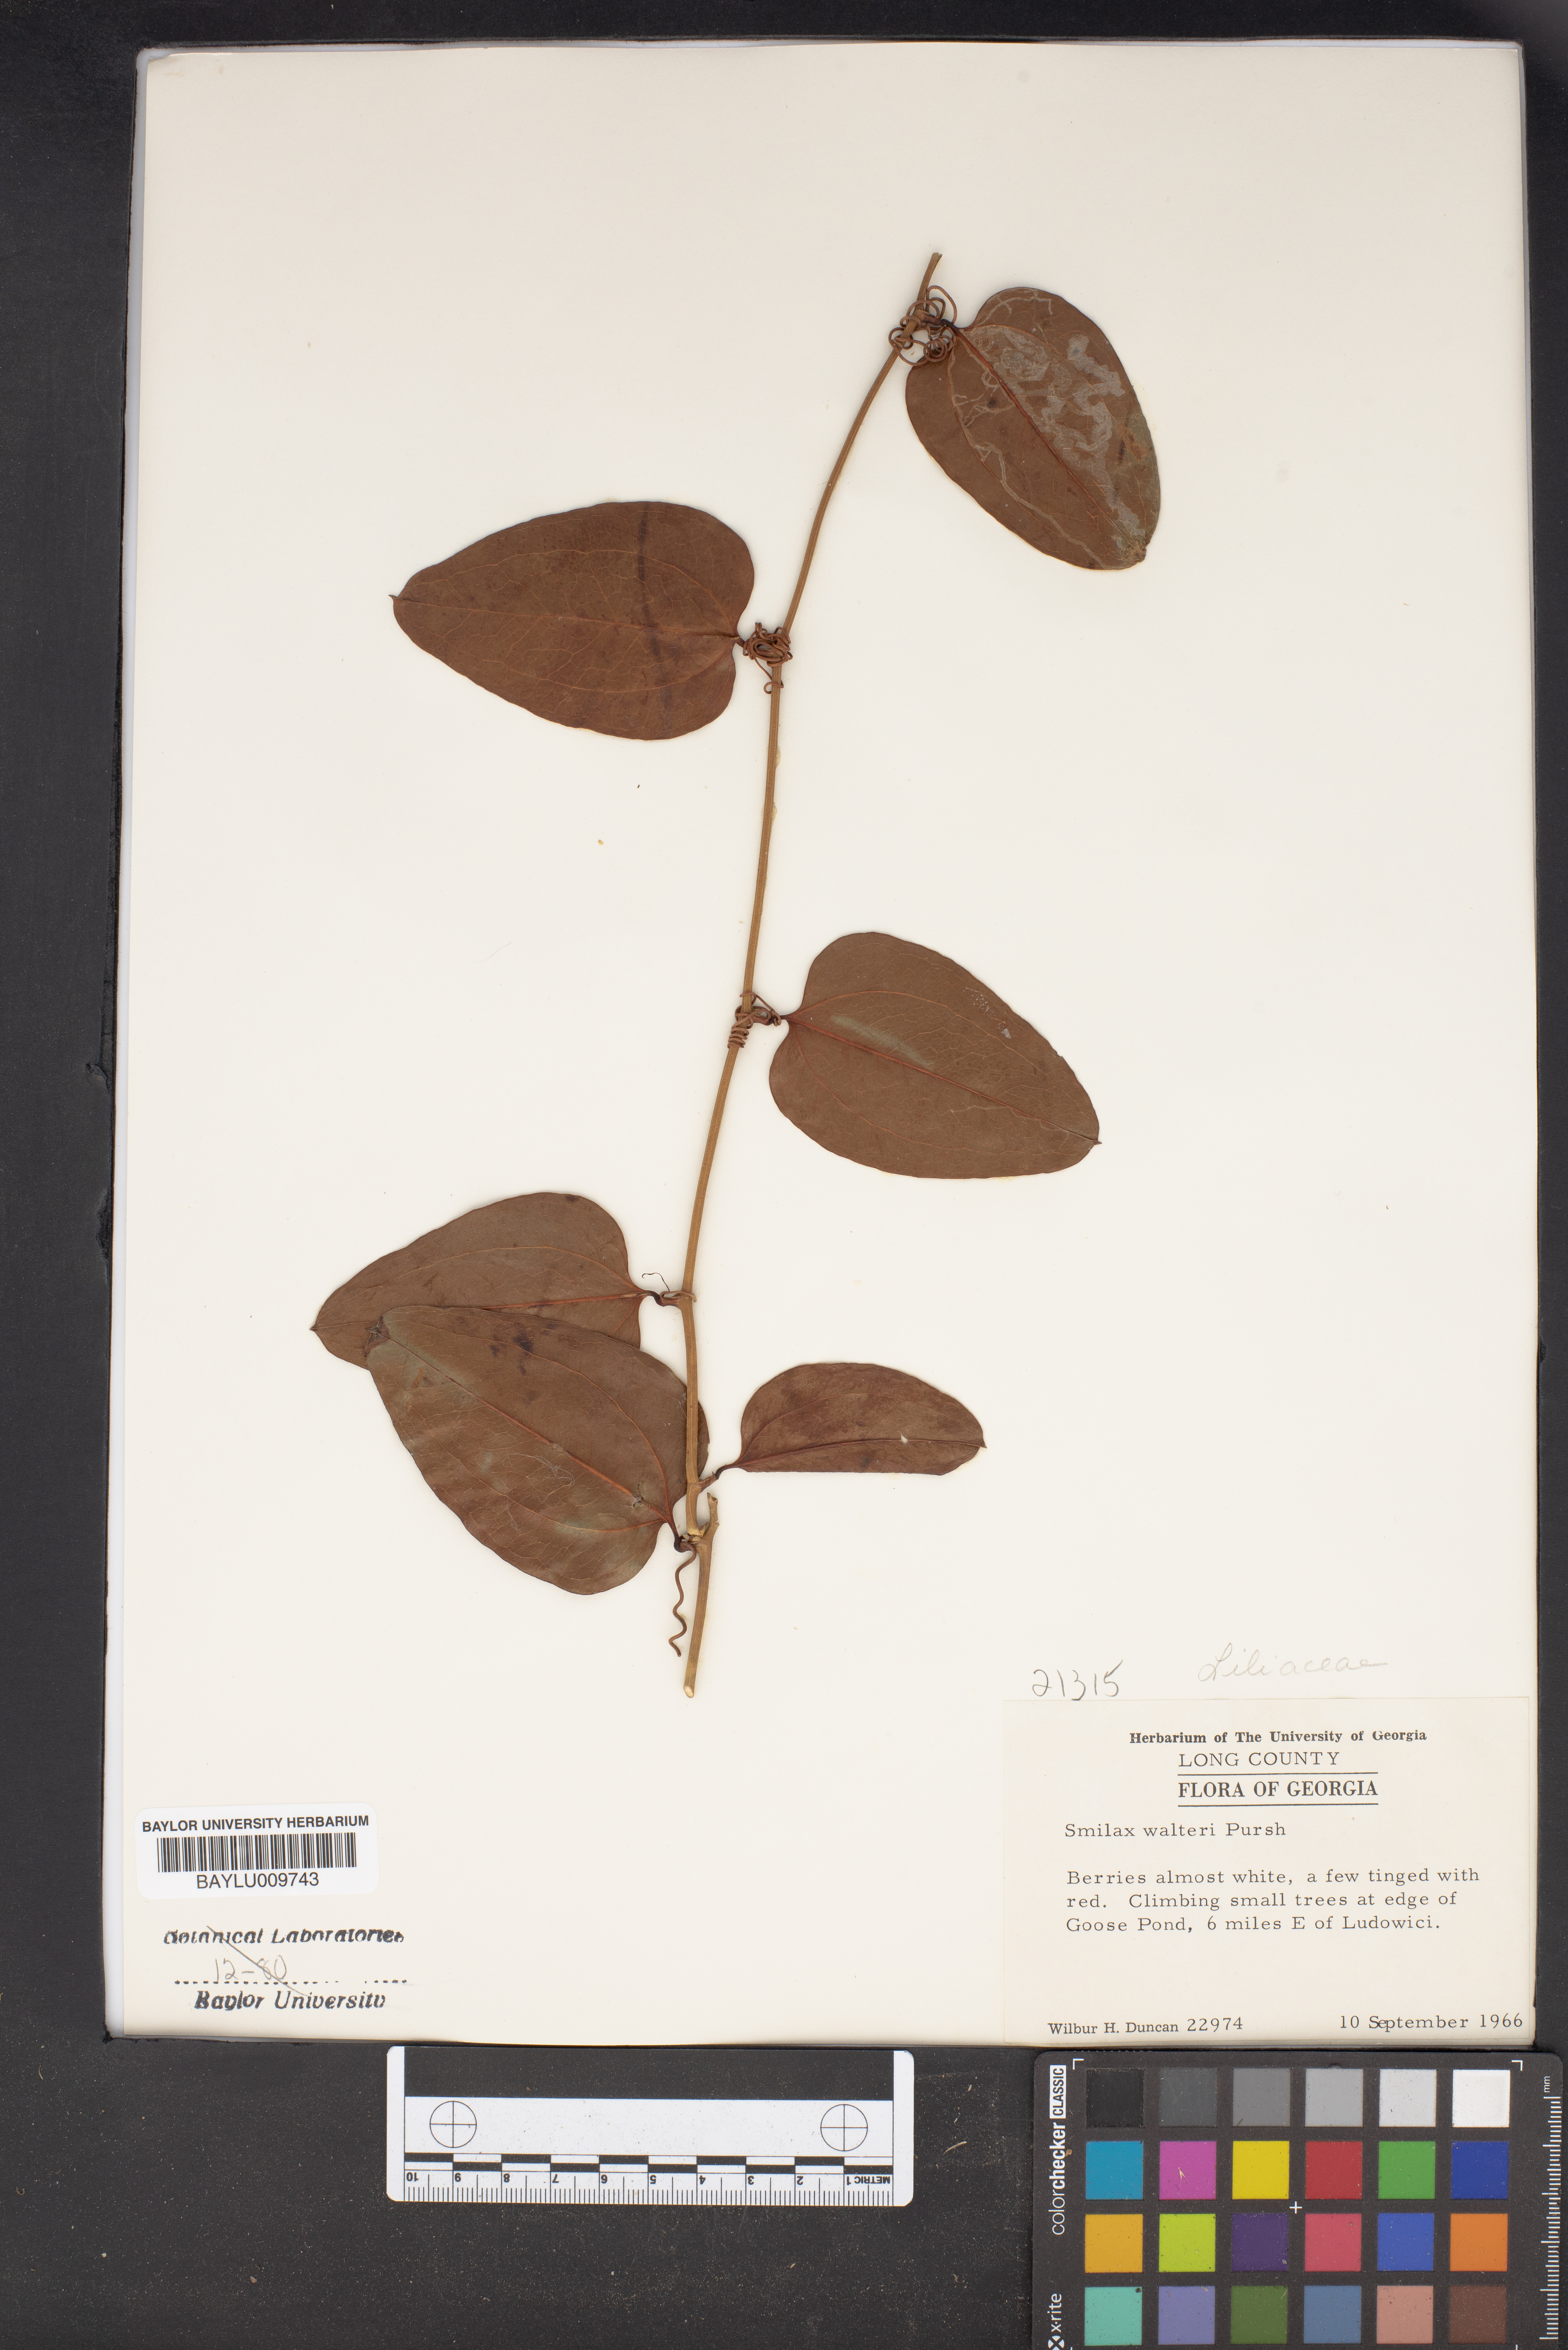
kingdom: Plantae
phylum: Tracheophyta
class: Liliopsida
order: Liliales
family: Smilacaceae
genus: Smilax
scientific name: Smilax walteri
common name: Coral greenbrier
